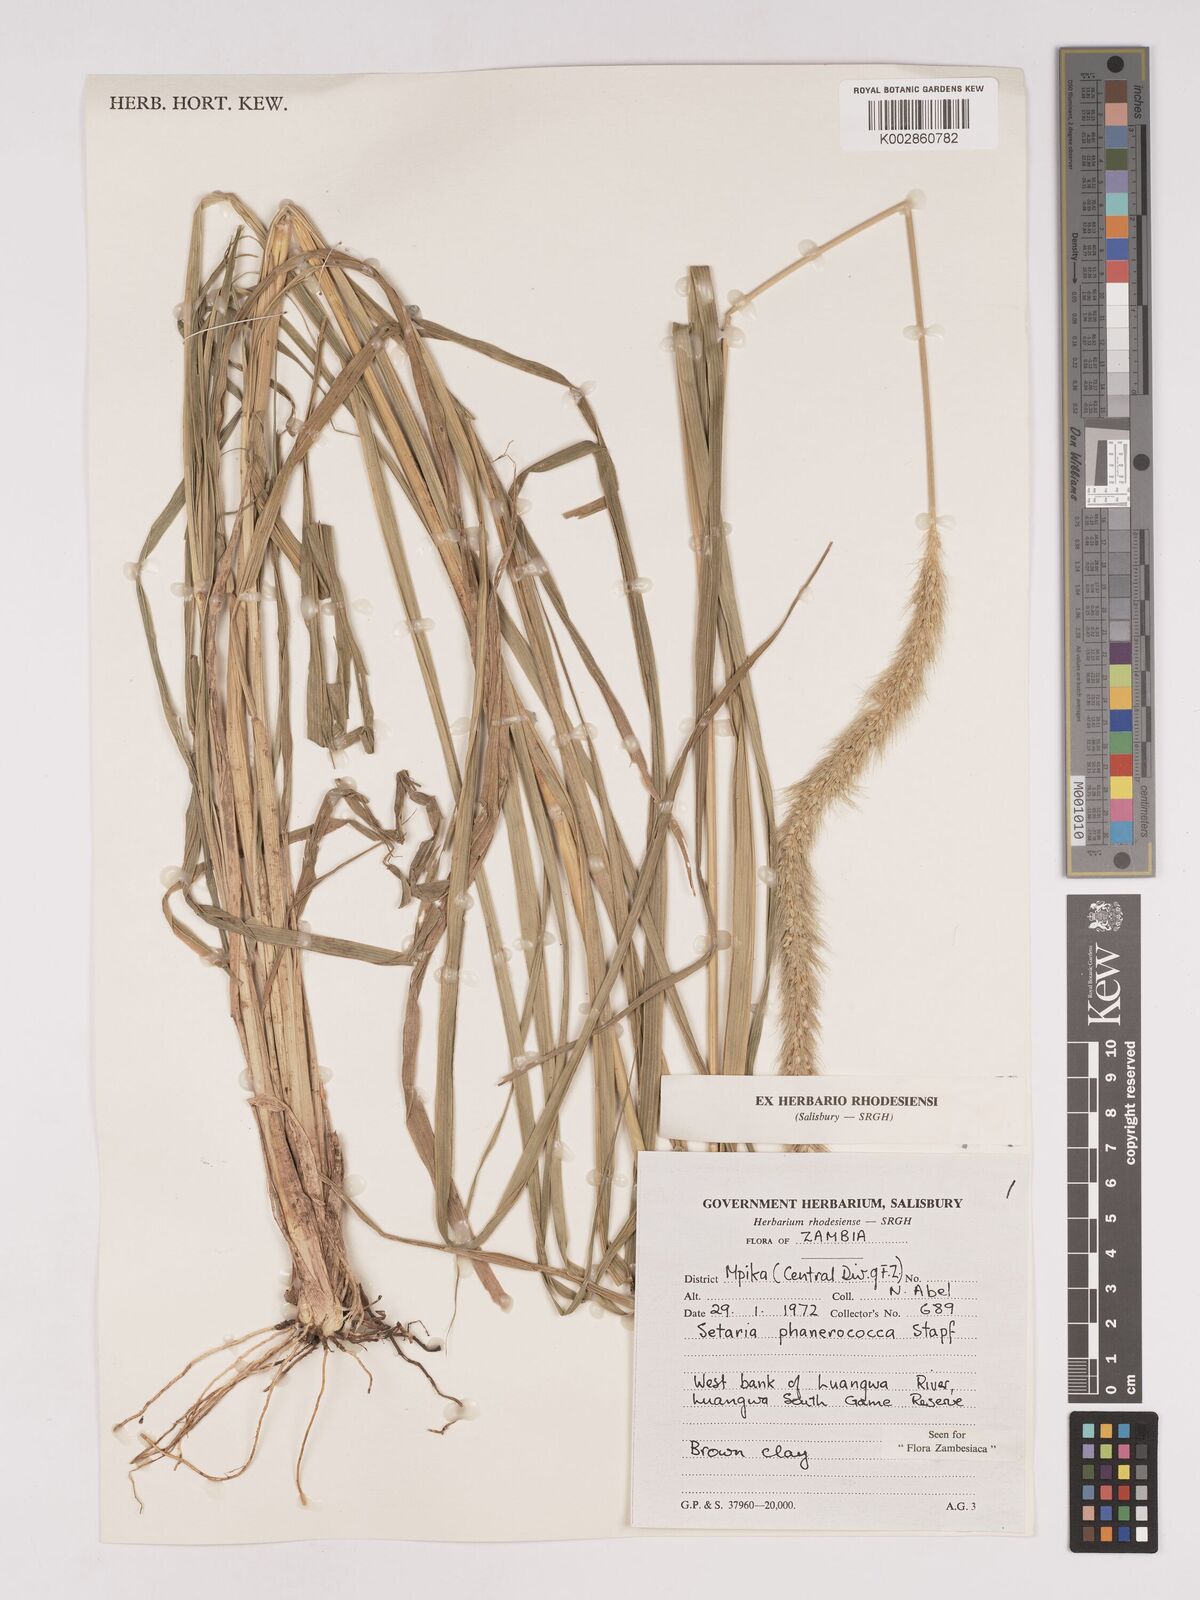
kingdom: Plantae
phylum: Tracheophyta
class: Liliopsida
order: Poales
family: Poaceae
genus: Setaria
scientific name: Setaria incrassata
